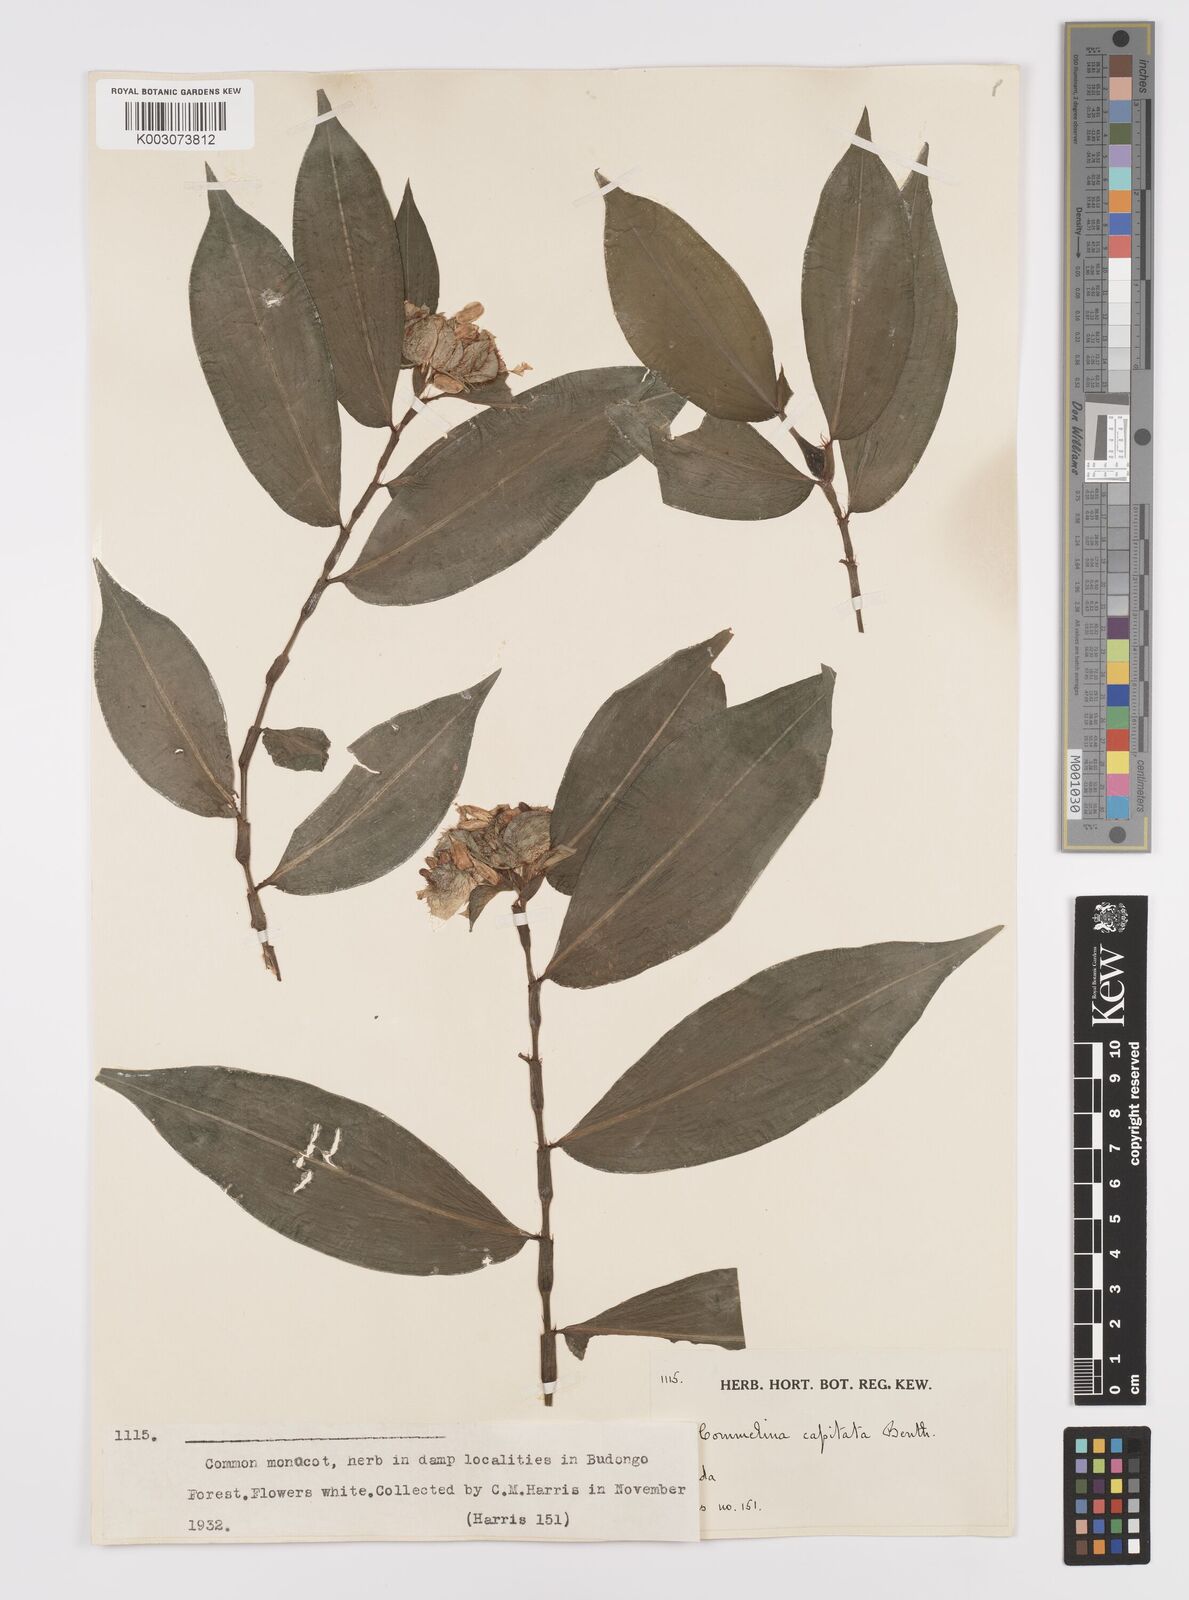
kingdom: Plantae
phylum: Tracheophyta
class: Liliopsida
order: Commelinales
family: Commelinaceae
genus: Commelina
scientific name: Commelina capitata
